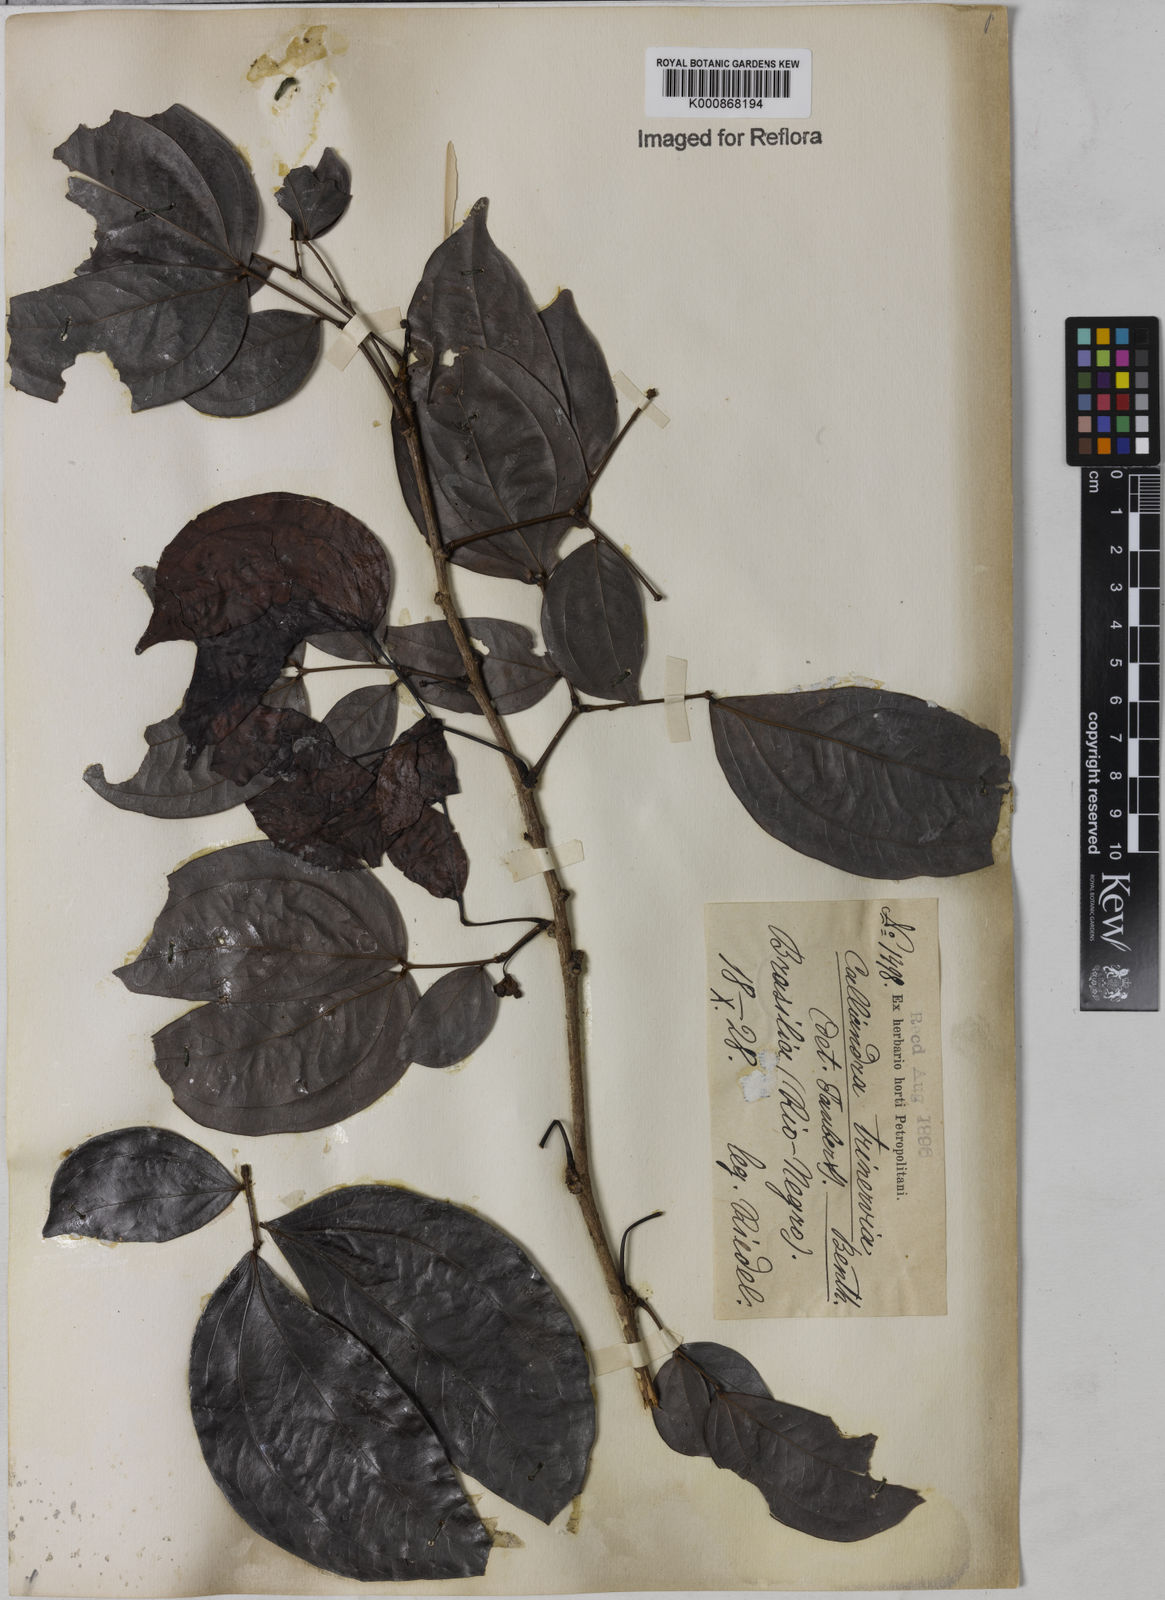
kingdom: Plantae
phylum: Tracheophyta
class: Magnoliopsida
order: Fabales
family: Fabaceae
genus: Calliandra
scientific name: Calliandra trinervia
